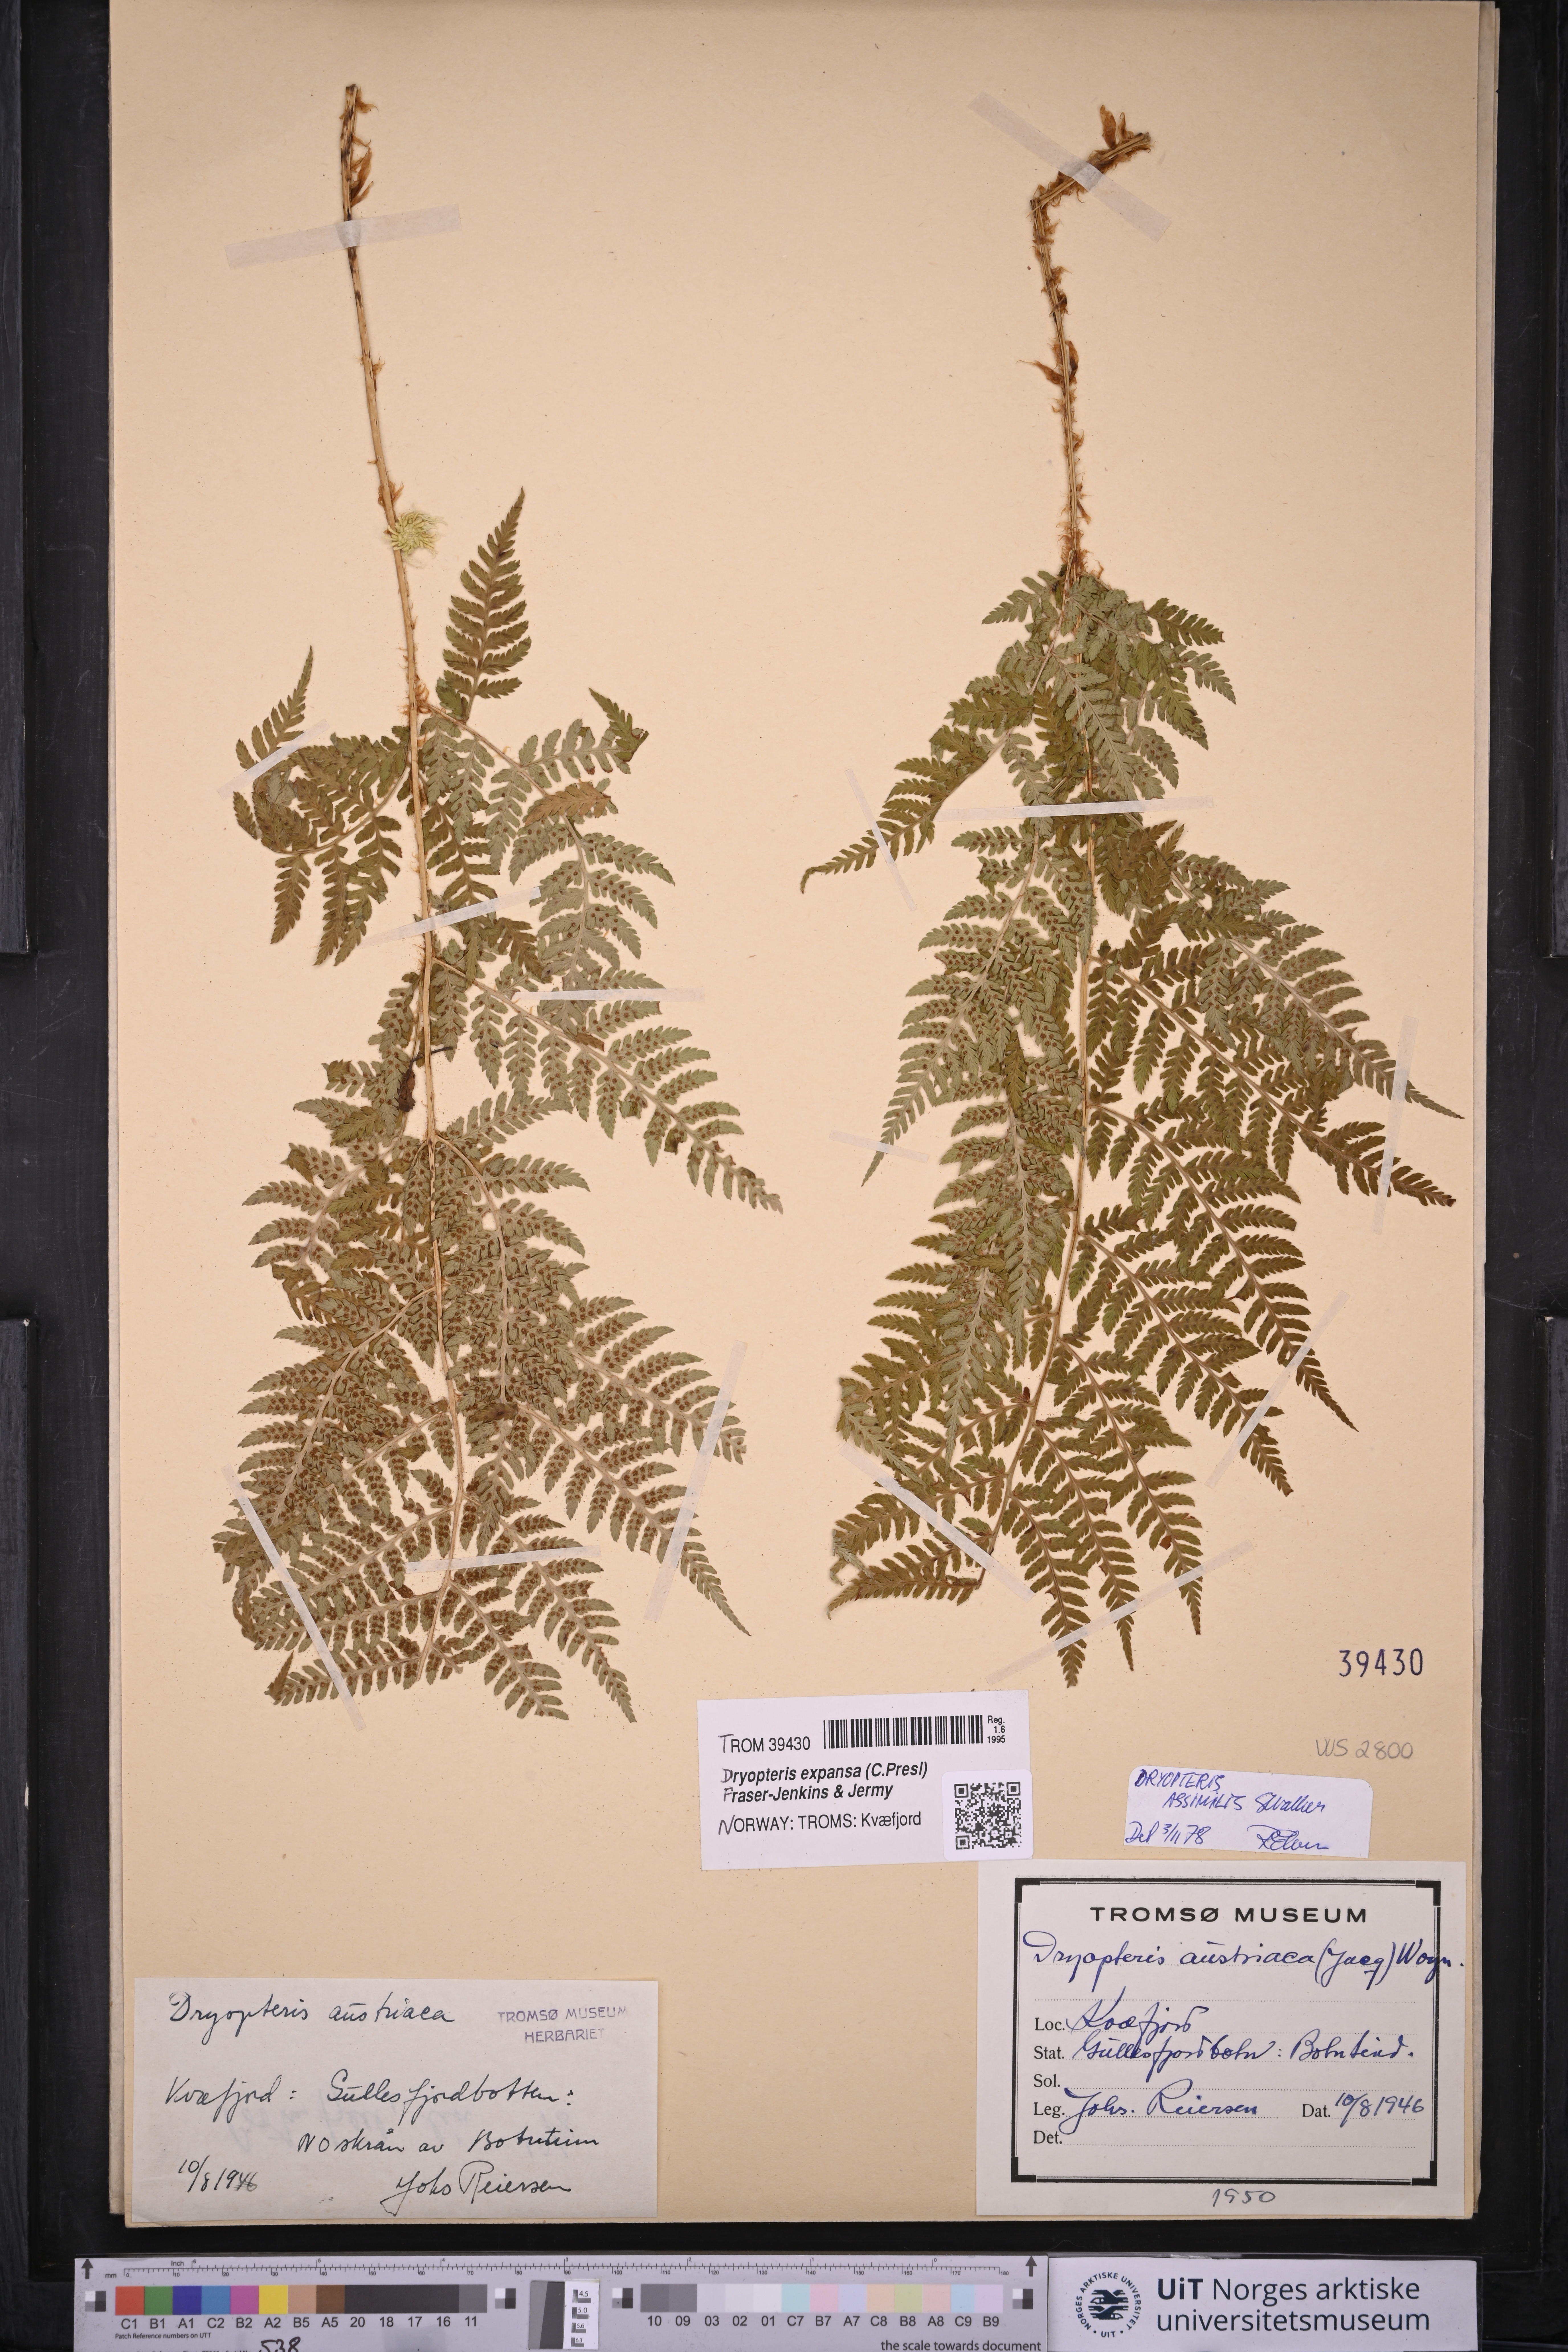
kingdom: Plantae
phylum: Tracheophyta
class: Polypodiopsida
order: Polypodiales
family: Dryopteridaceae
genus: Dryopteris
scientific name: Dryopteris expansa
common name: Northern buckler fern
